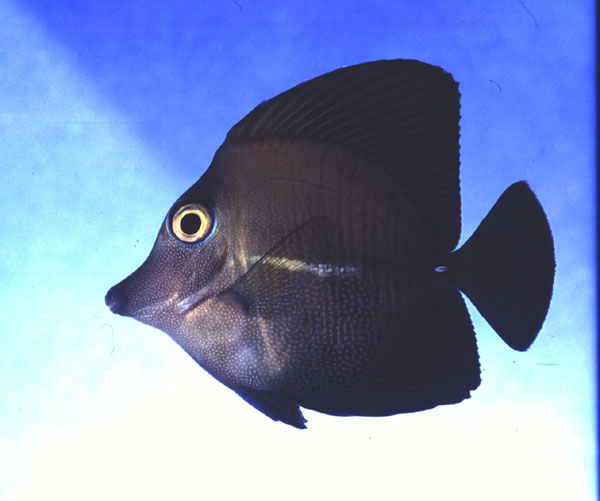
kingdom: Animalia
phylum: Chordata
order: Perciformes
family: Acanthuridae
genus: Zebrasoma
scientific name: Zebrasoma scopas
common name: Twotone tang
